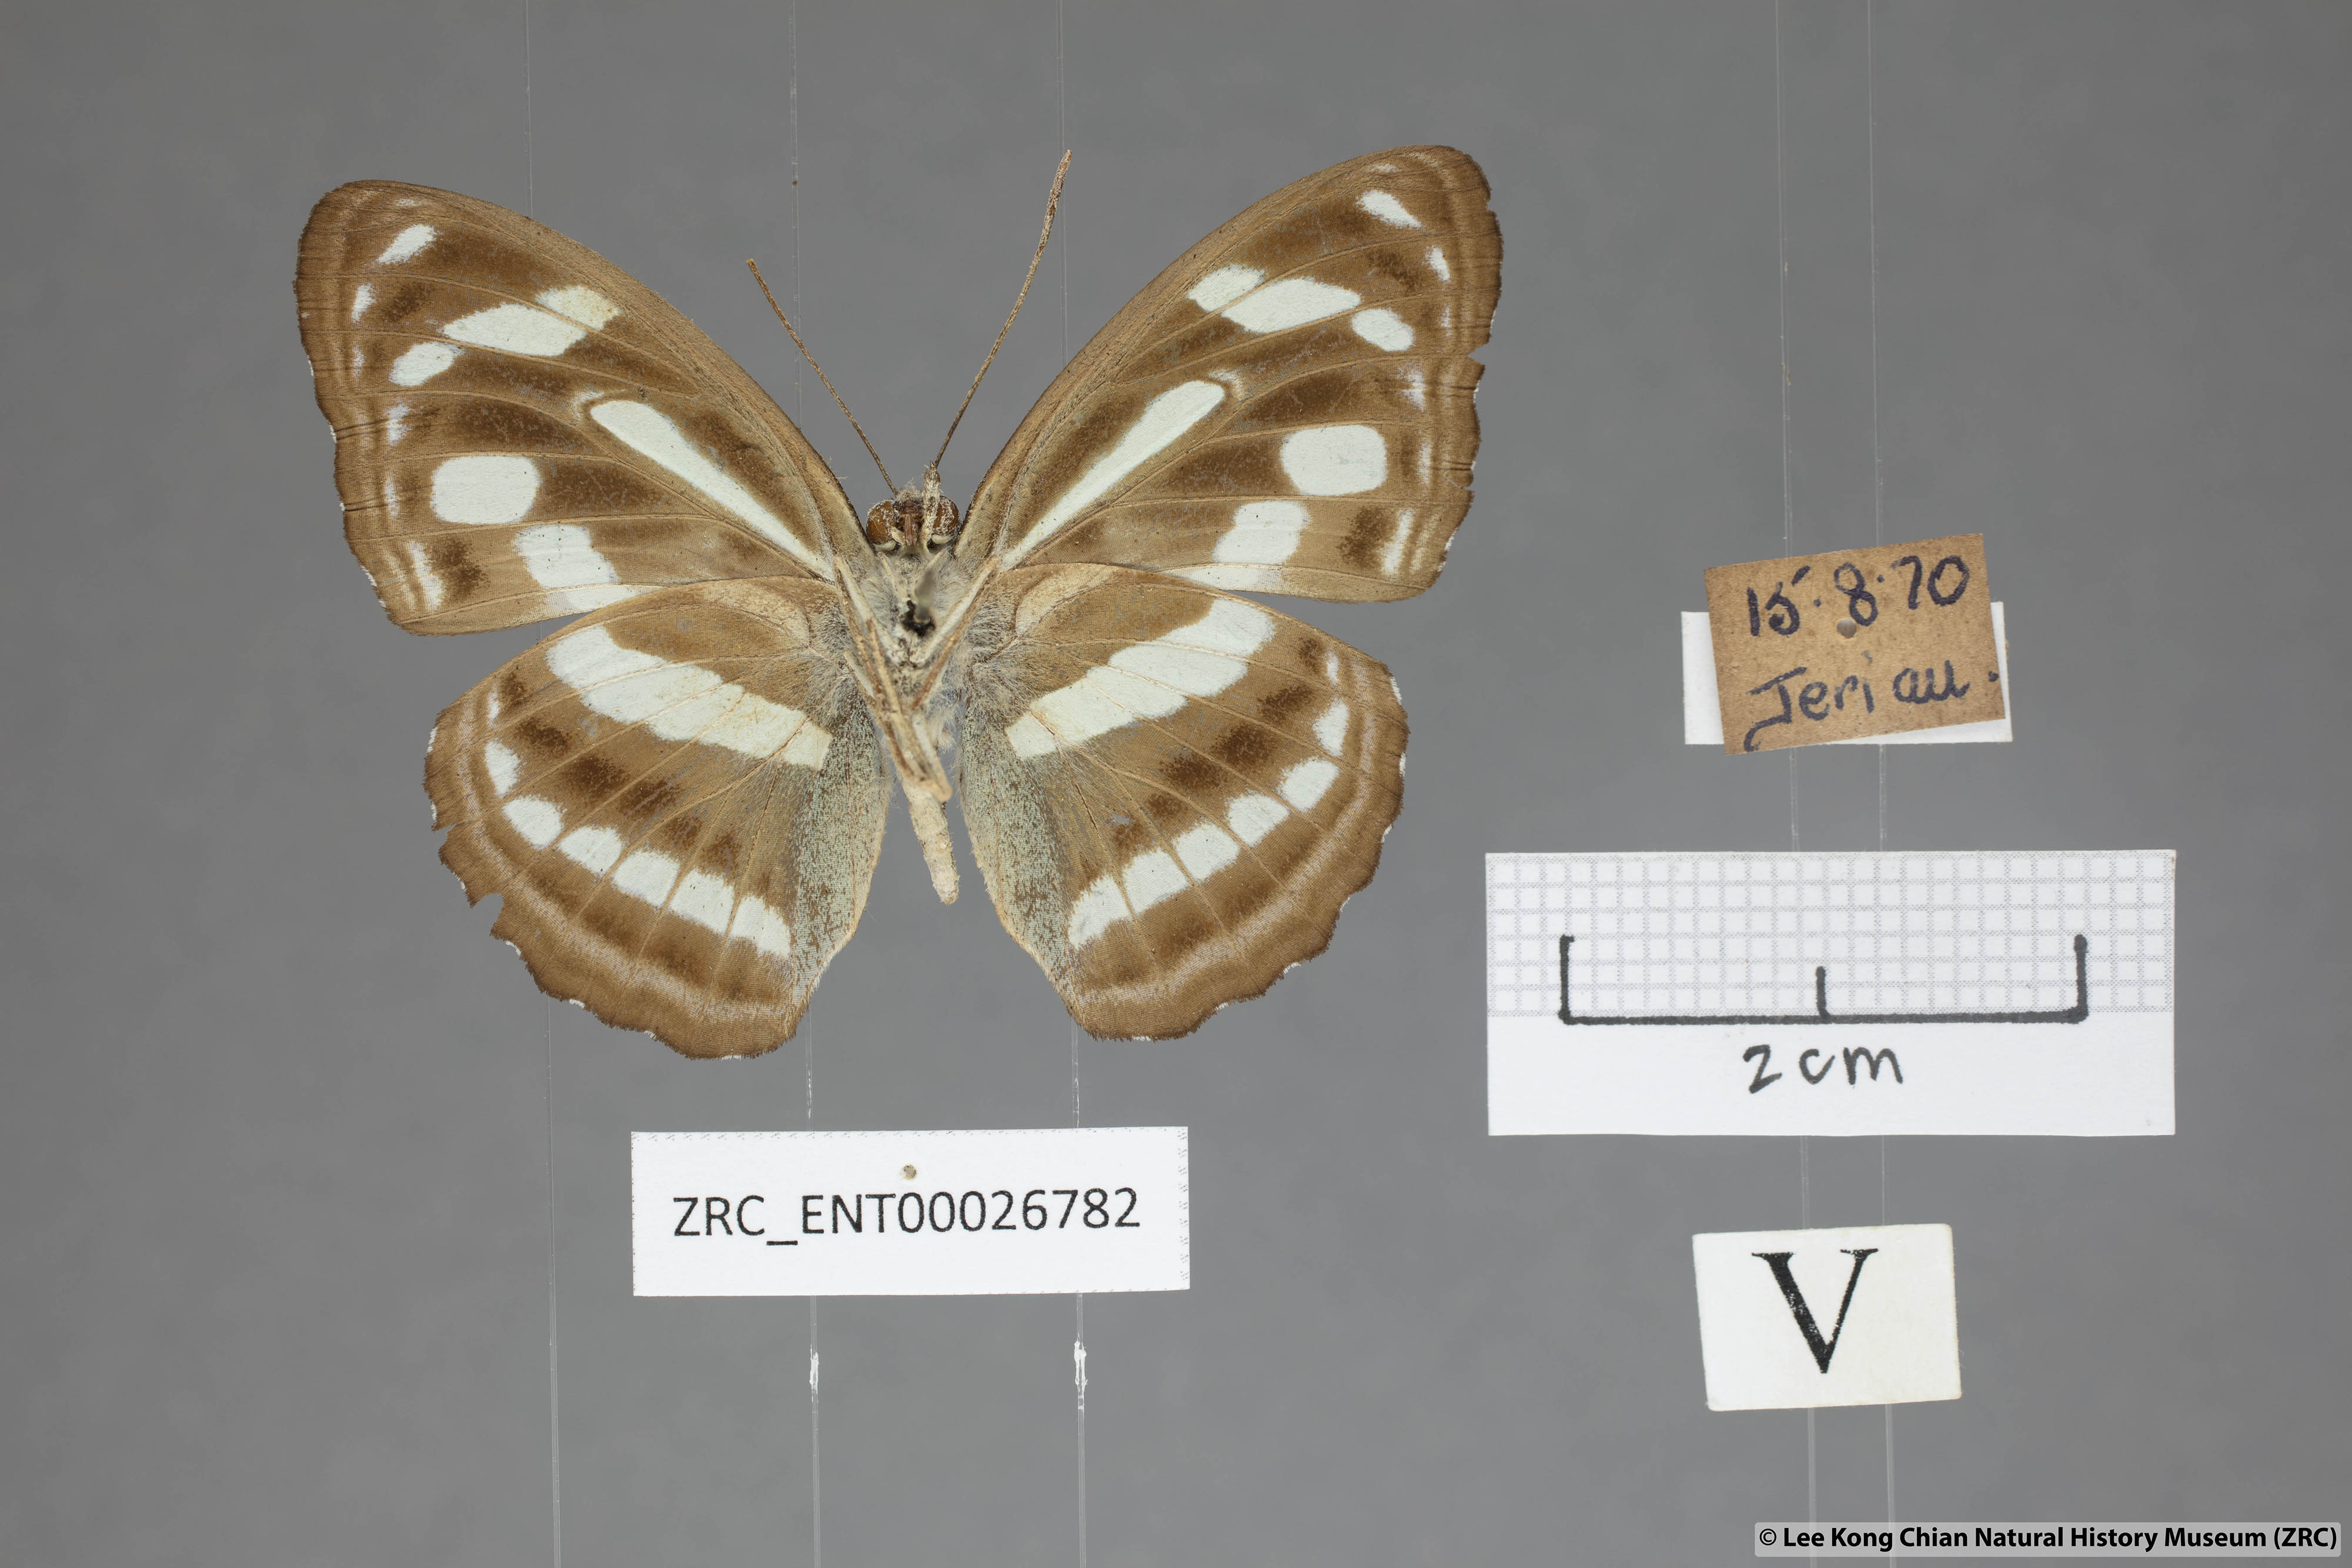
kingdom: Animalia
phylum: Arthropoda
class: Insecta
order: Lepidoptera
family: Nymphalidae
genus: Parathyma
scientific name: Parathyma pravara
